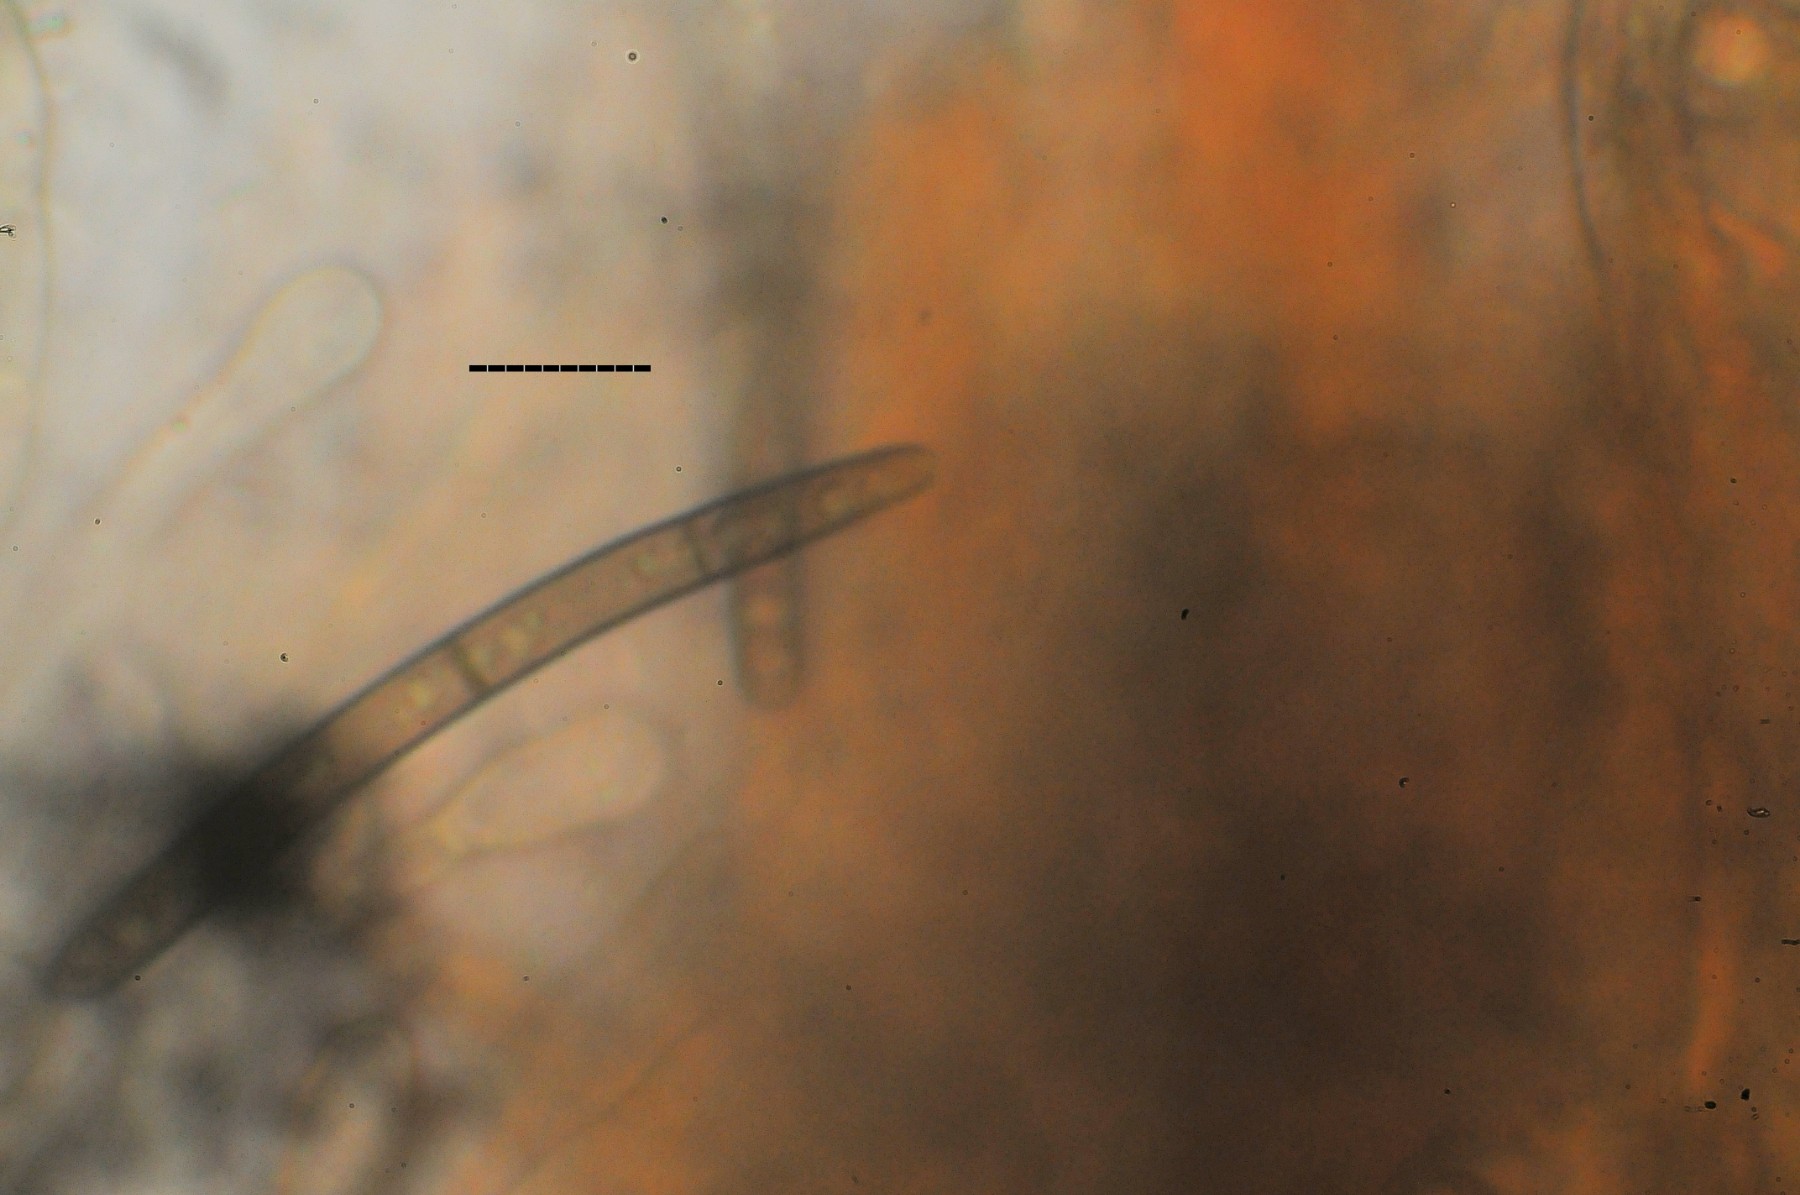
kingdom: Fungi
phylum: Ascomycota
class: Geoglossomycetes
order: Geoglossales
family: Geoglossaceae
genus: Glutinoglossum
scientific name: Glutinoglossum glutinosum
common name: slimet jordtunge
